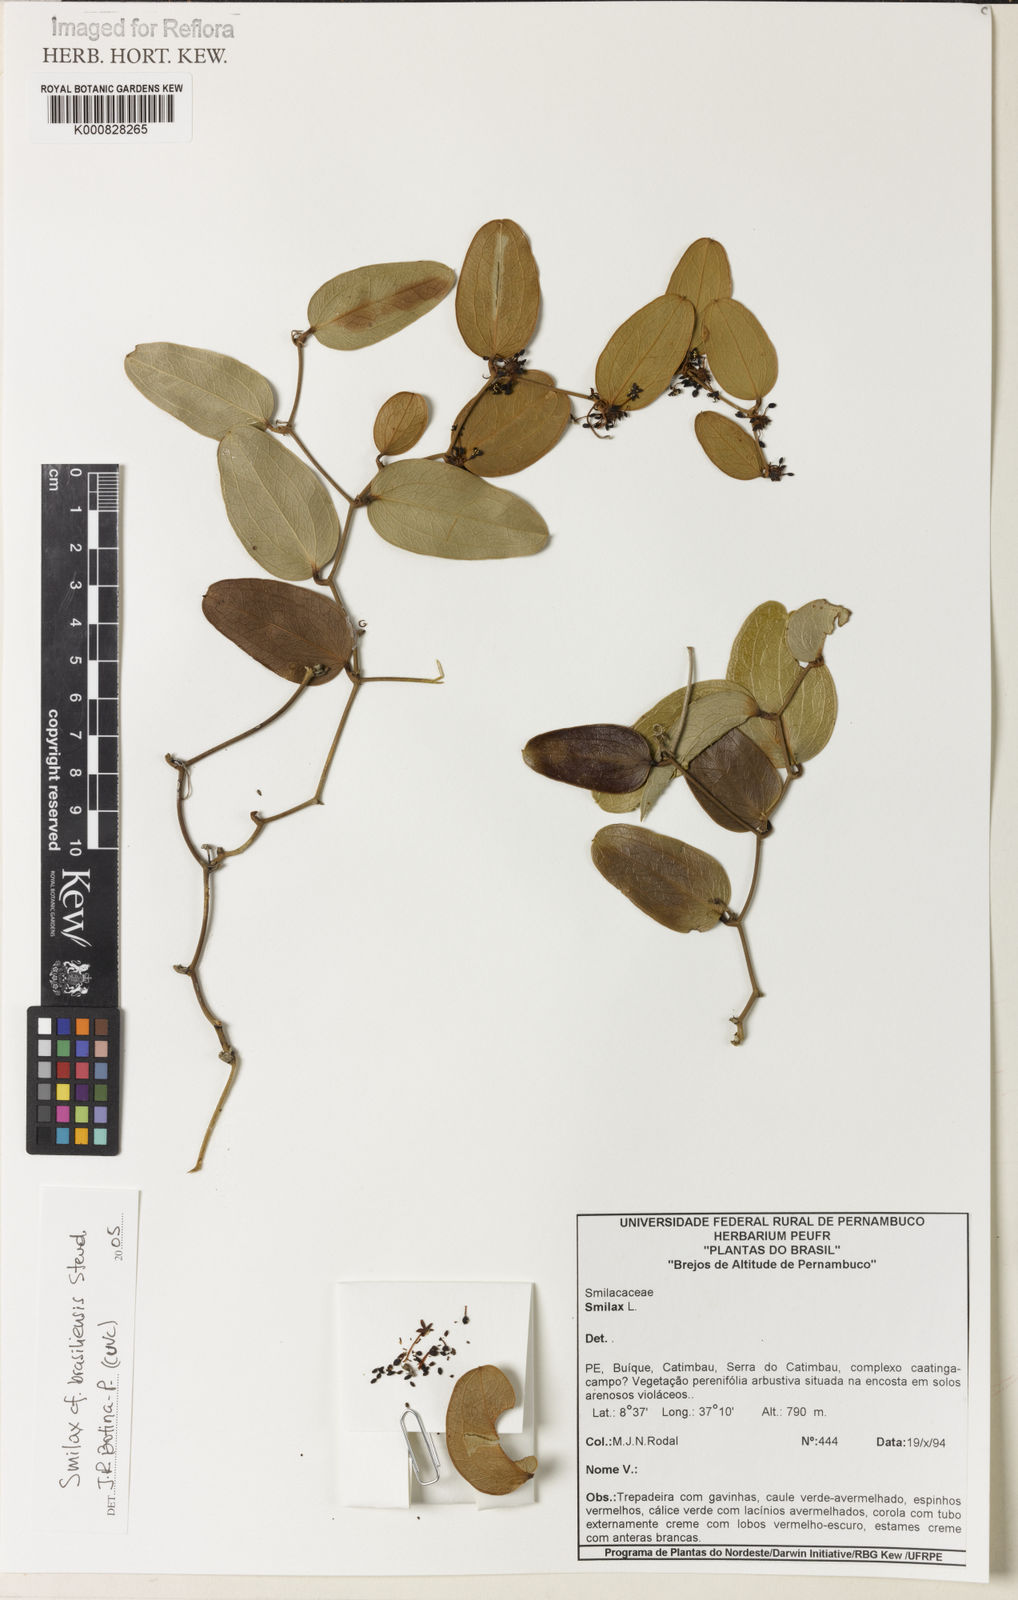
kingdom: Plantae
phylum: Tracheophyta
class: Liliopsida
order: Liliales
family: Smilacaceae
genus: Smilax
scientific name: Smilax brasiliensis
